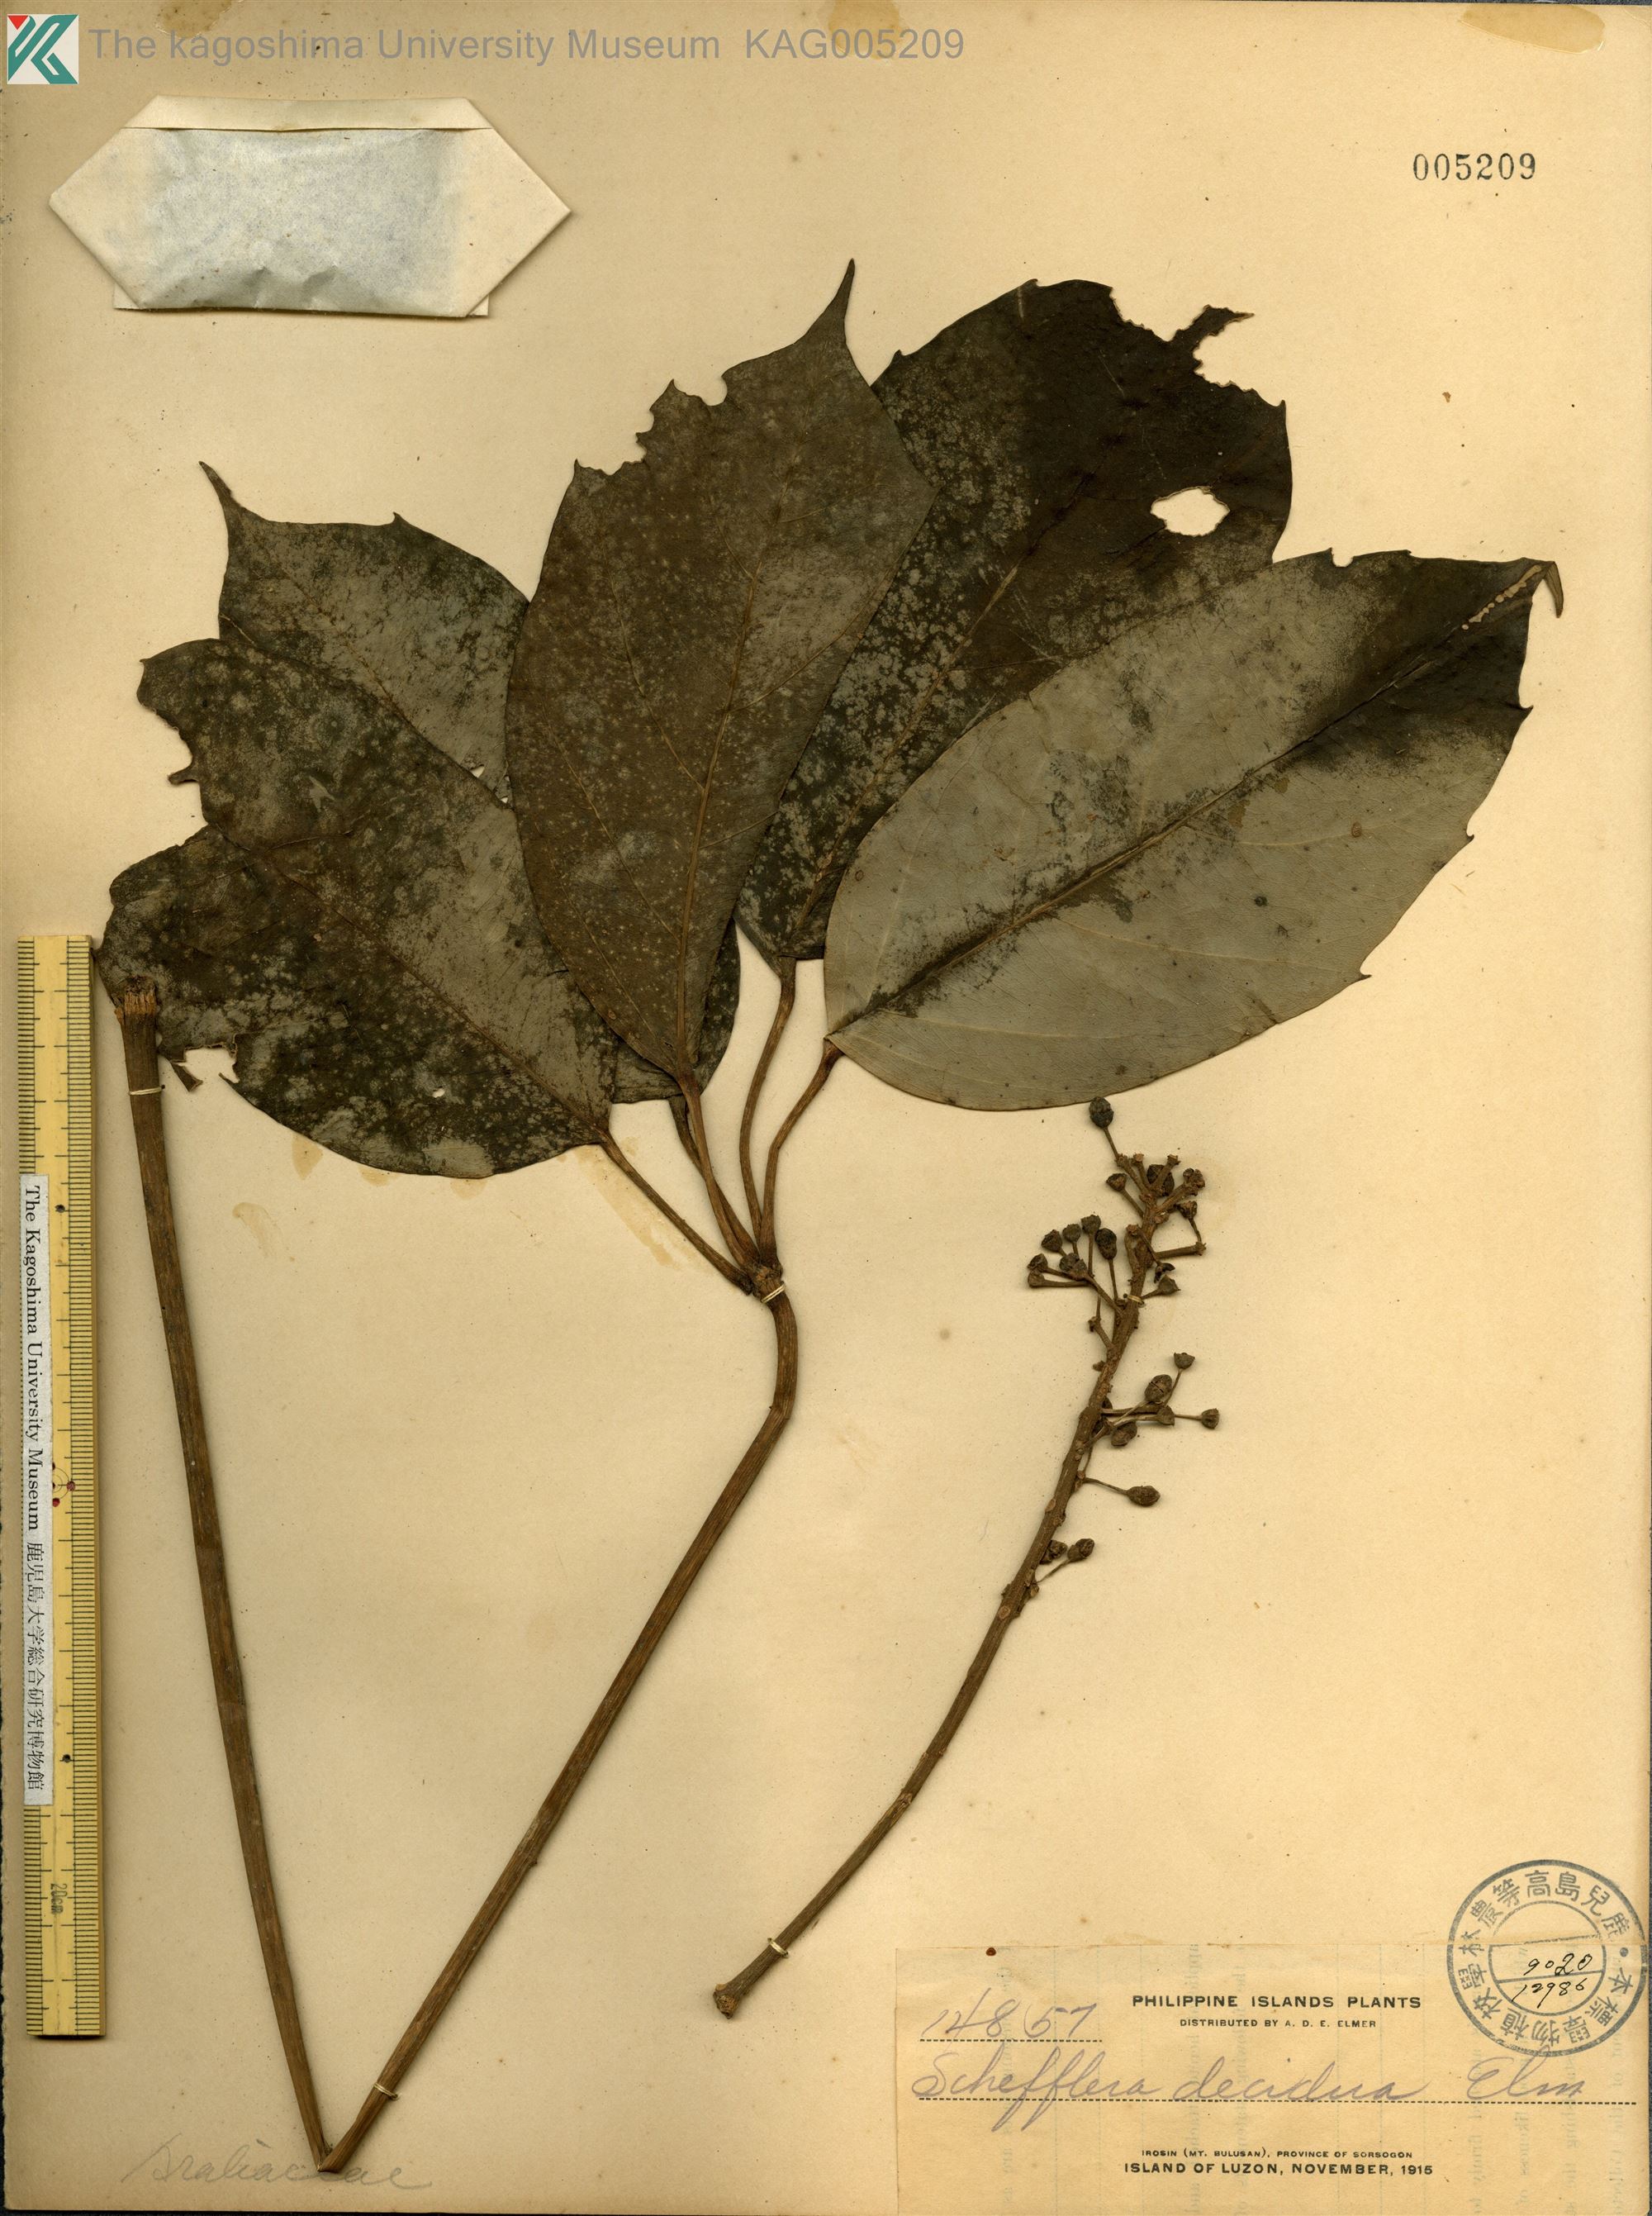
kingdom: Plantae
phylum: Tracheophyta
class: Magnoliopsida
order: Apiales
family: Araliaceae
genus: Heptapleurum
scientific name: Heptapleurum insularum
